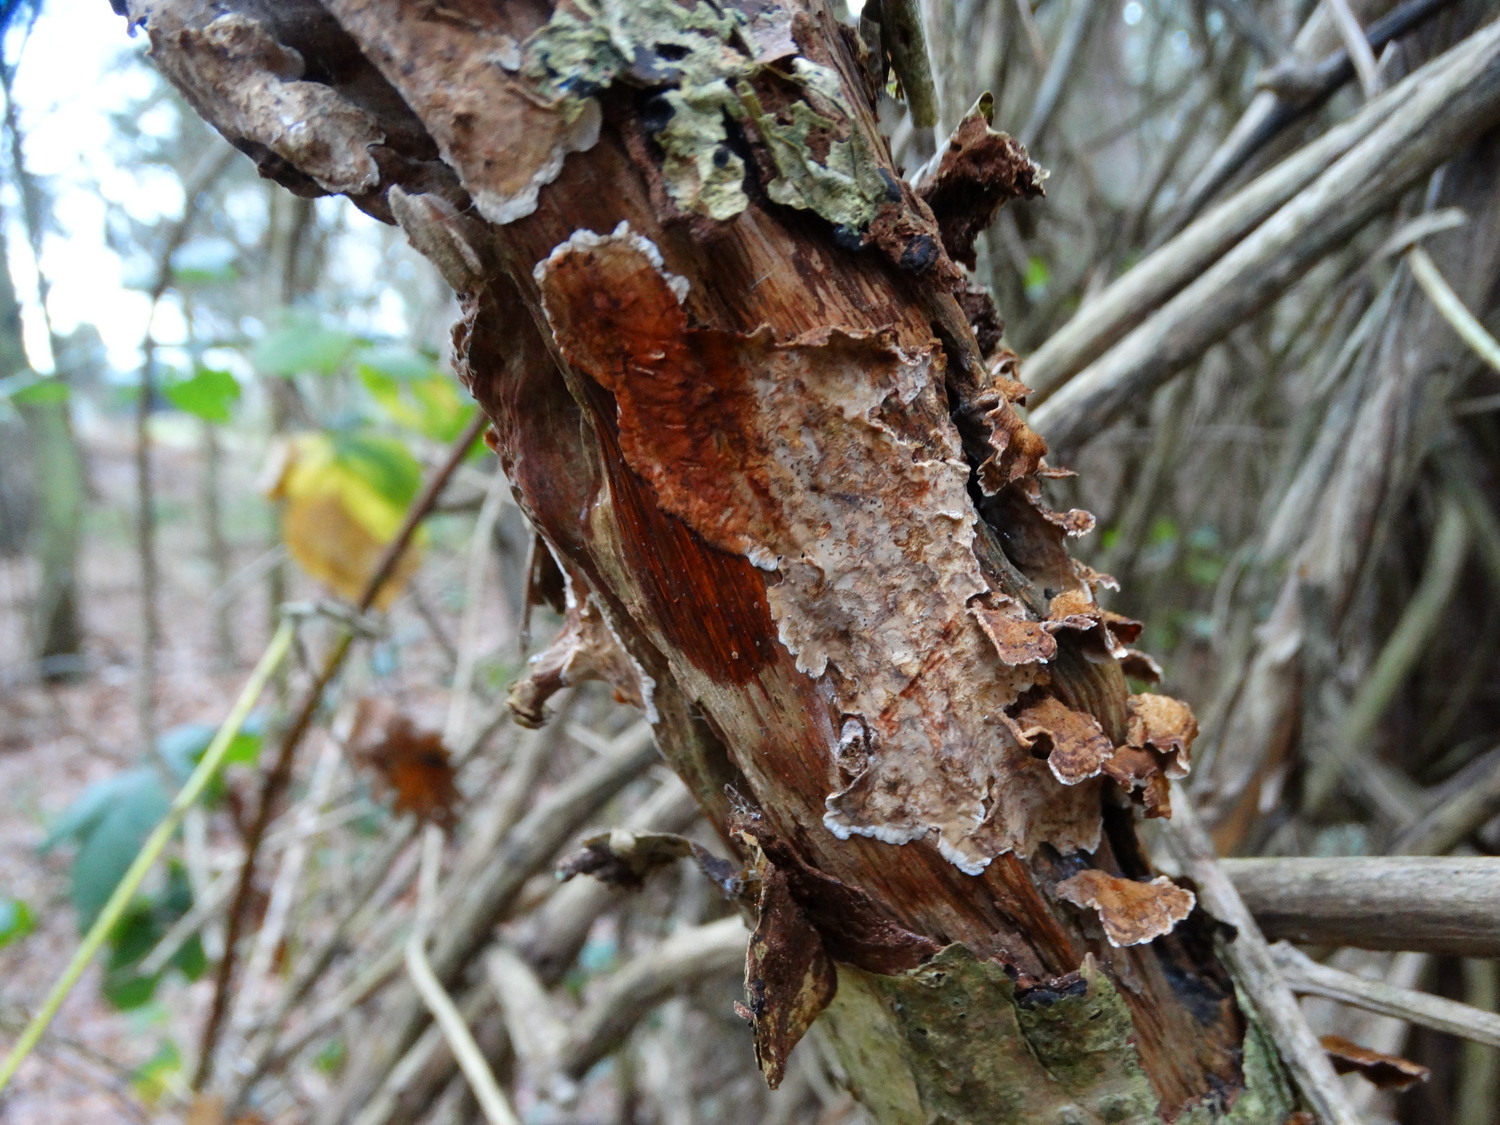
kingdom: Fungi
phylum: Basidiomycota
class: Agaricomycetes
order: Russulales
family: Stereaceae
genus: Stereum
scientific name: Stereum gausapatum
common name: tynd lædersvamp
